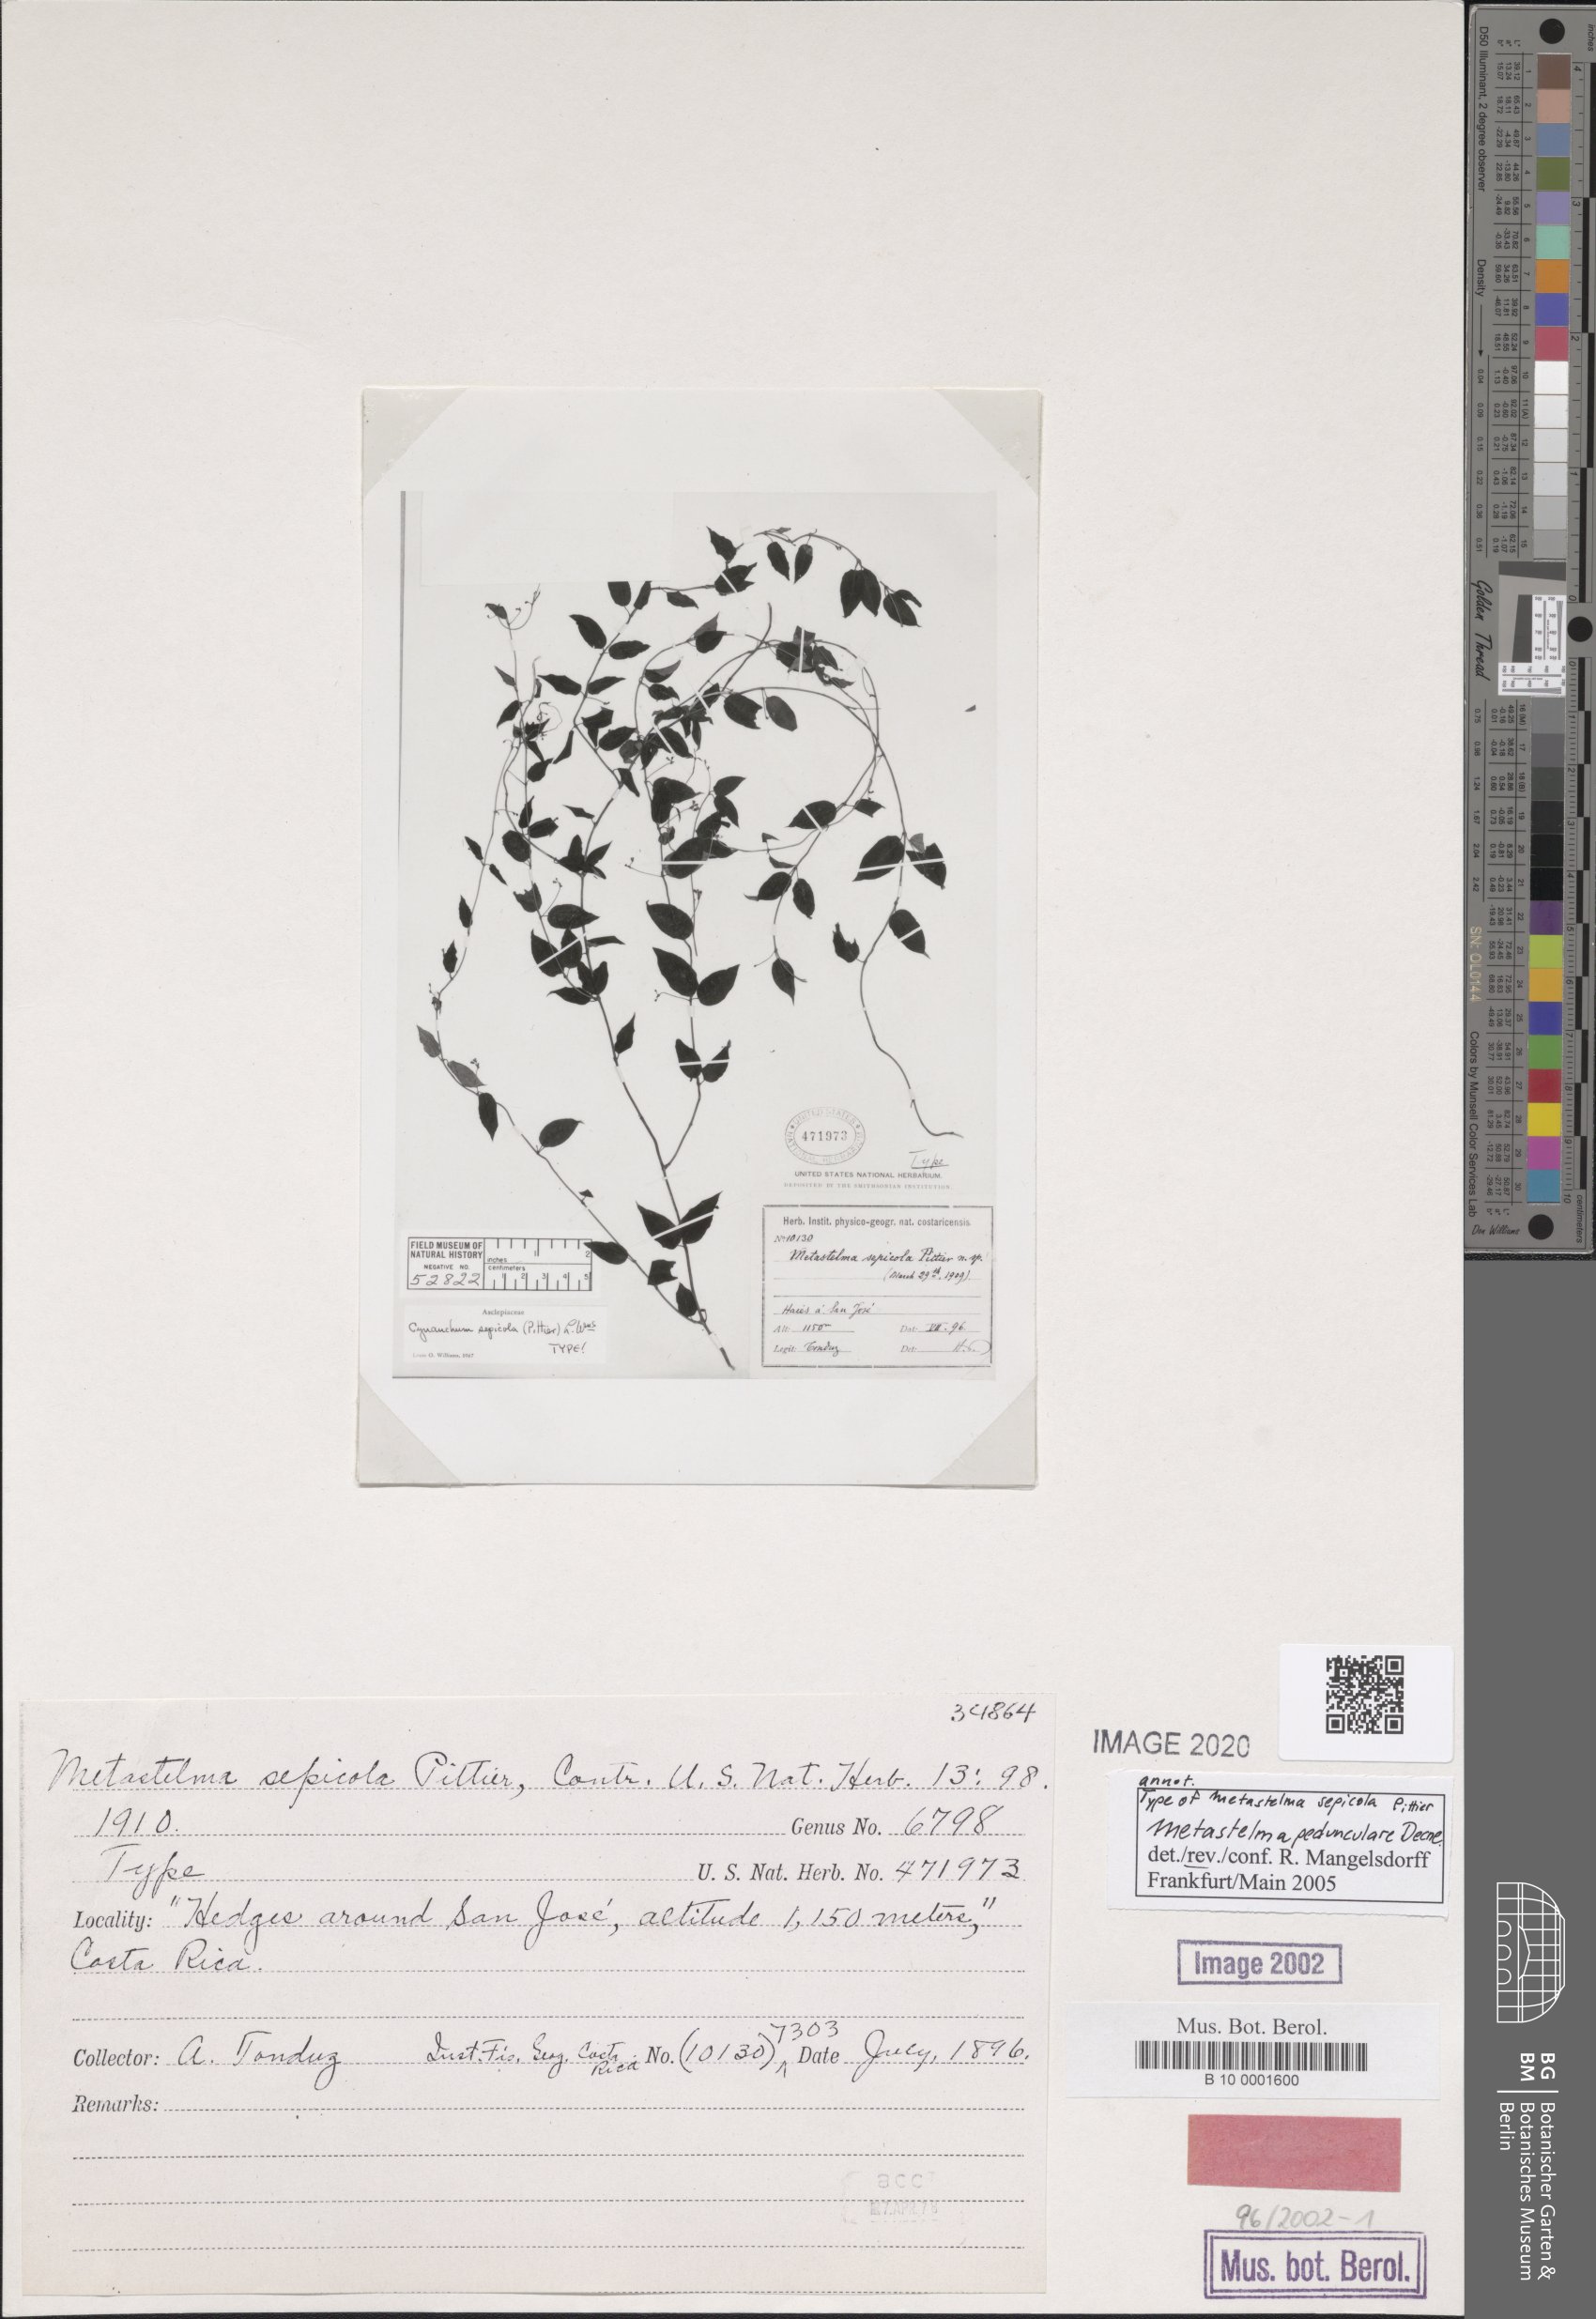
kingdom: Plantae
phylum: Tracheophyta
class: Magnoliopsida
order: Gentianales
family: Apocynaceae
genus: Metastelma
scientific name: Metastelma sepicola
